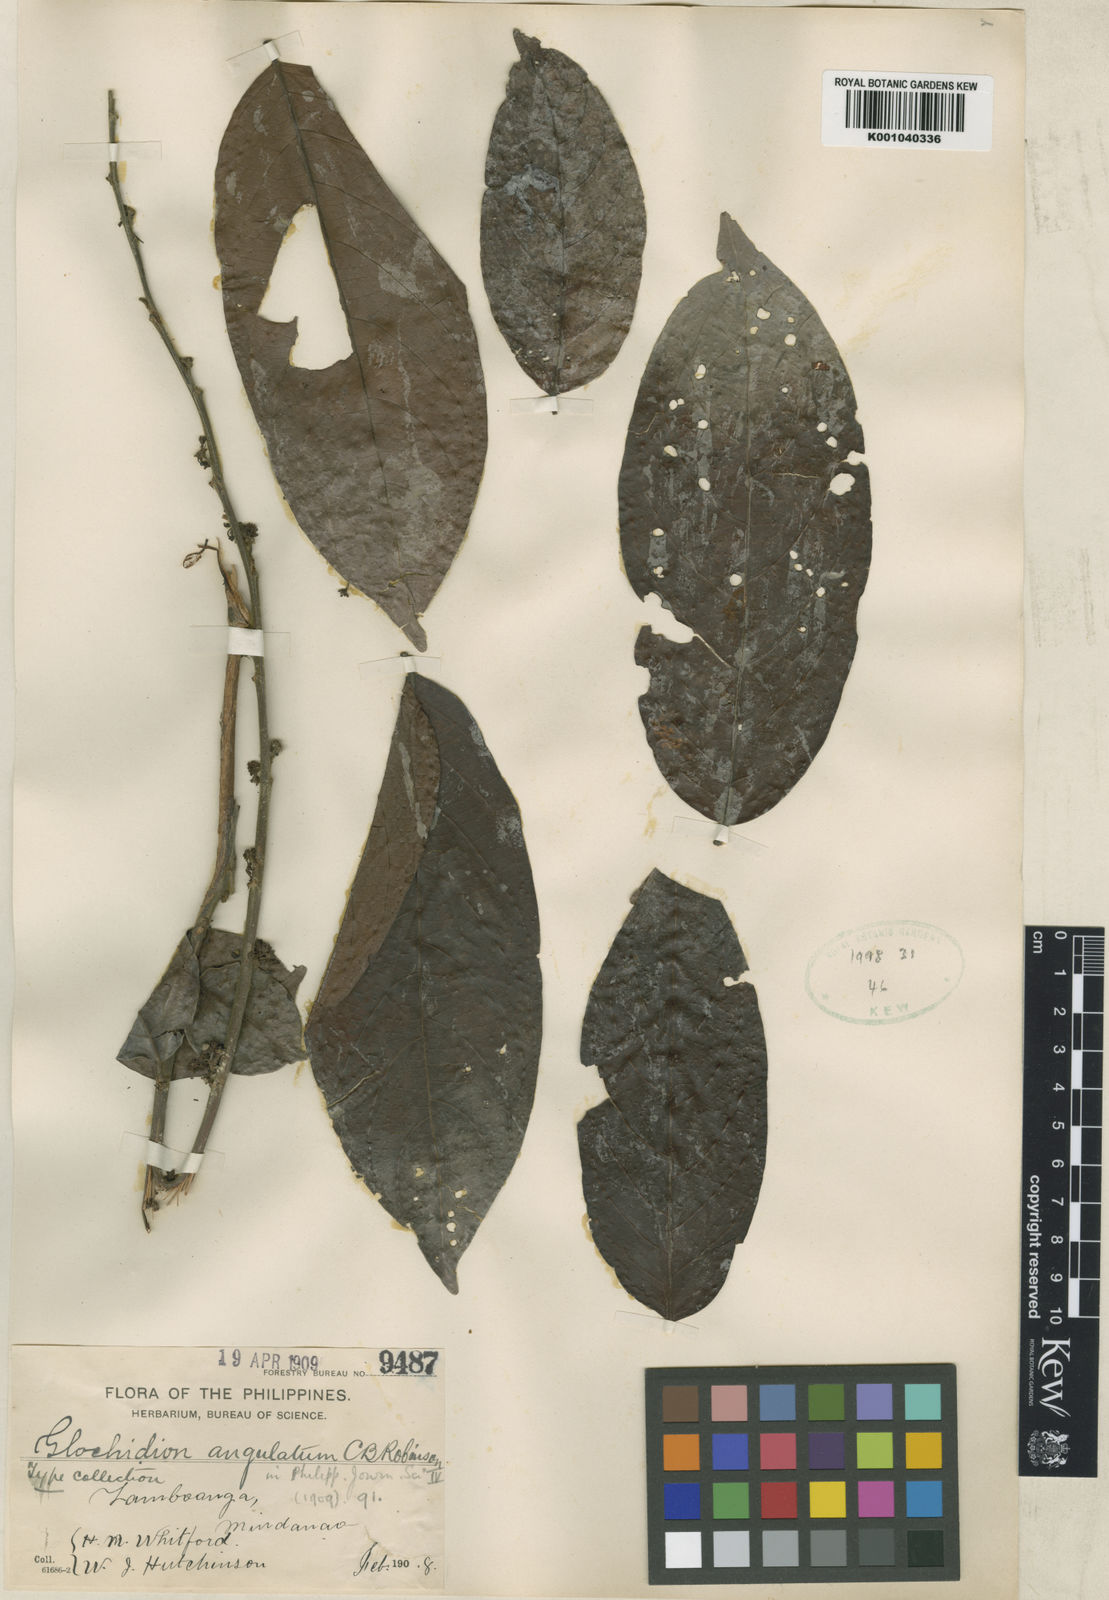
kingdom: Plantae
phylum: Tracheophyta
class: Magnoliopsida
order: Malpighiales
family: Phyllanthaceae
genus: Glochidion
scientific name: Glochidion angulatum
